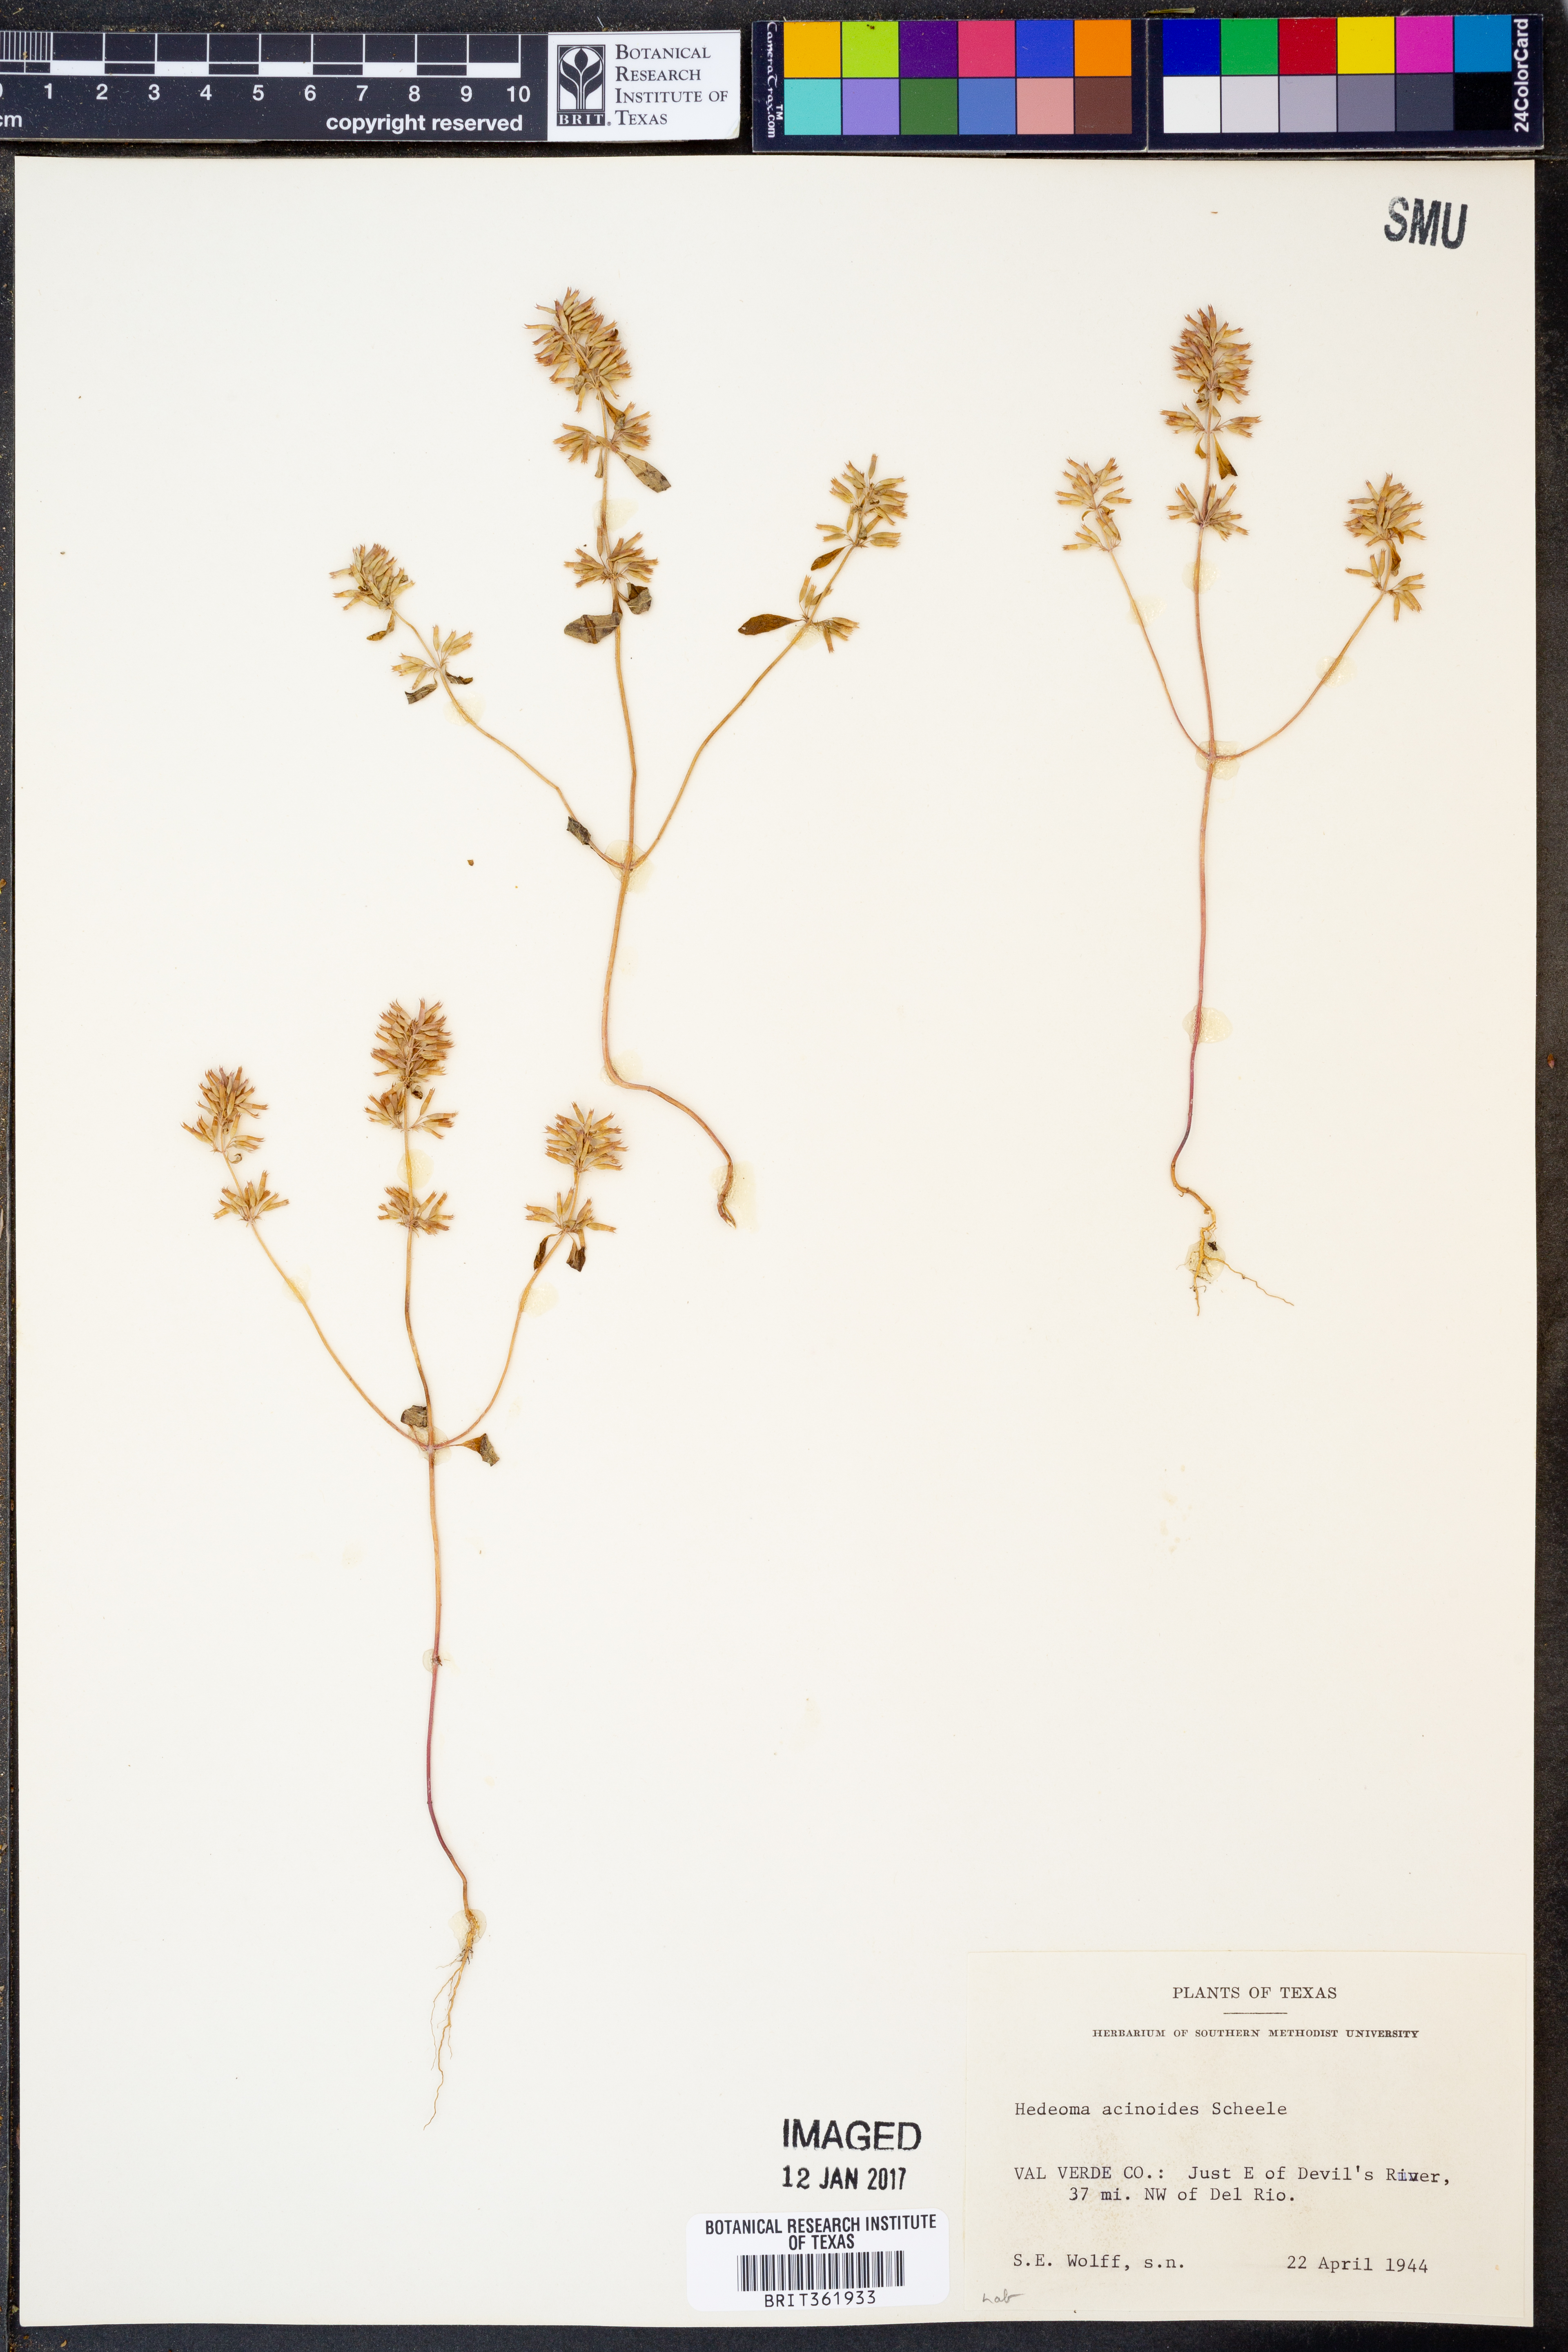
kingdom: Plantae
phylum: Tracheophyta
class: Magnoliopsida
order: Lamiales
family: Lamiaceae
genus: Hedeoma
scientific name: Hedeoma acinoides
